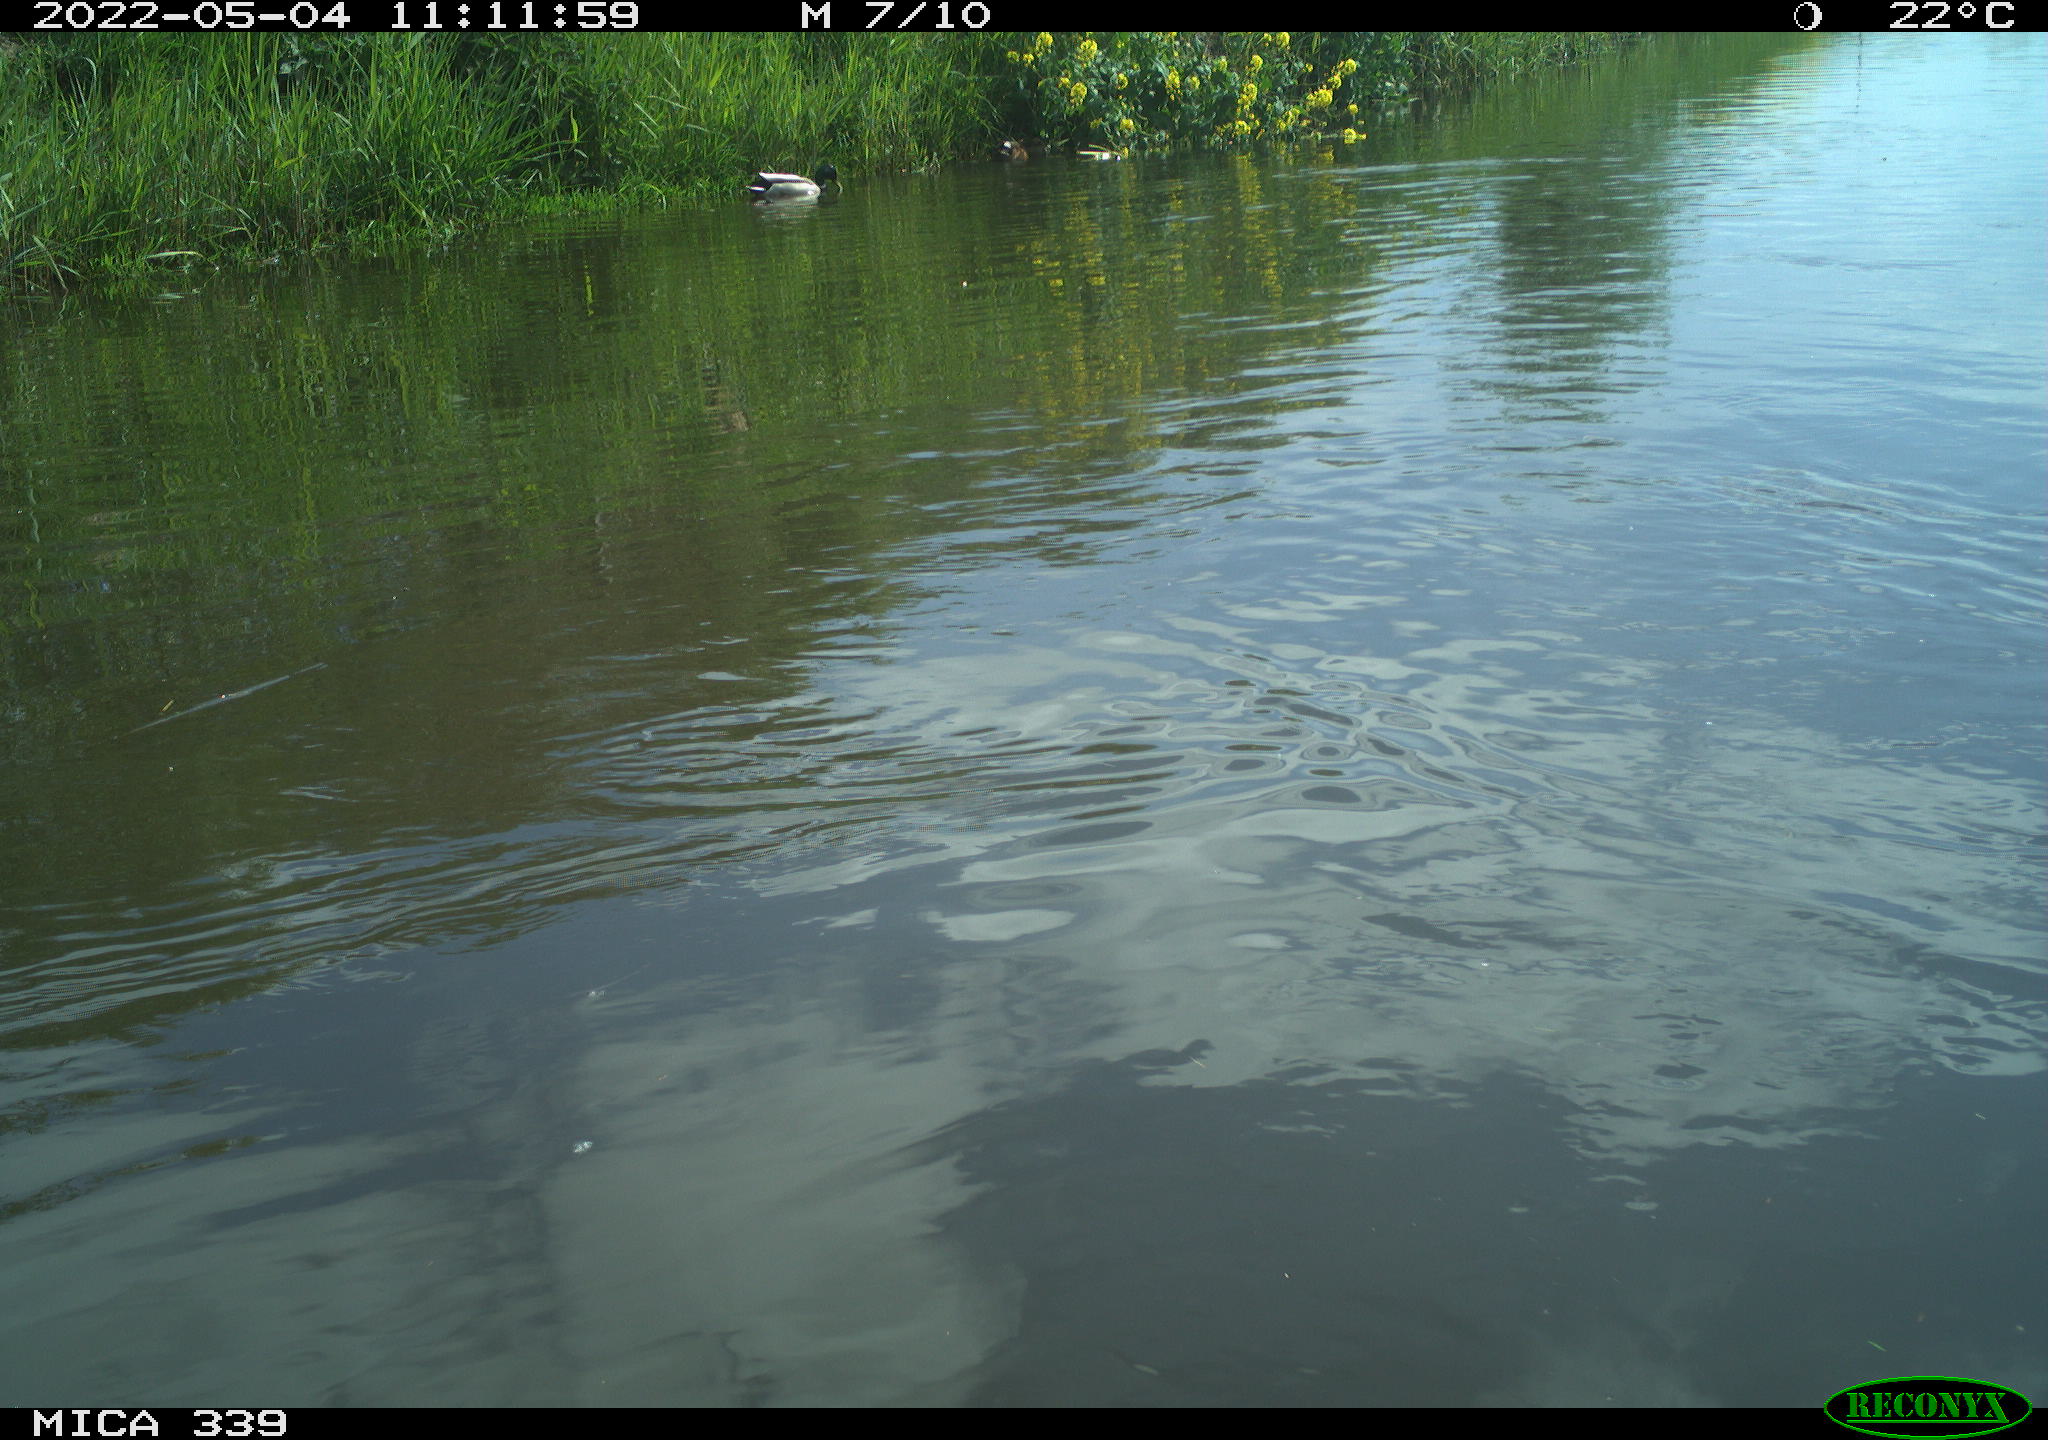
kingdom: Animalia
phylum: Chordata
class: Aves
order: Gruiformes
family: Rallidae
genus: Gallinula
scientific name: Gallinula chloropus
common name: Common moorhen
